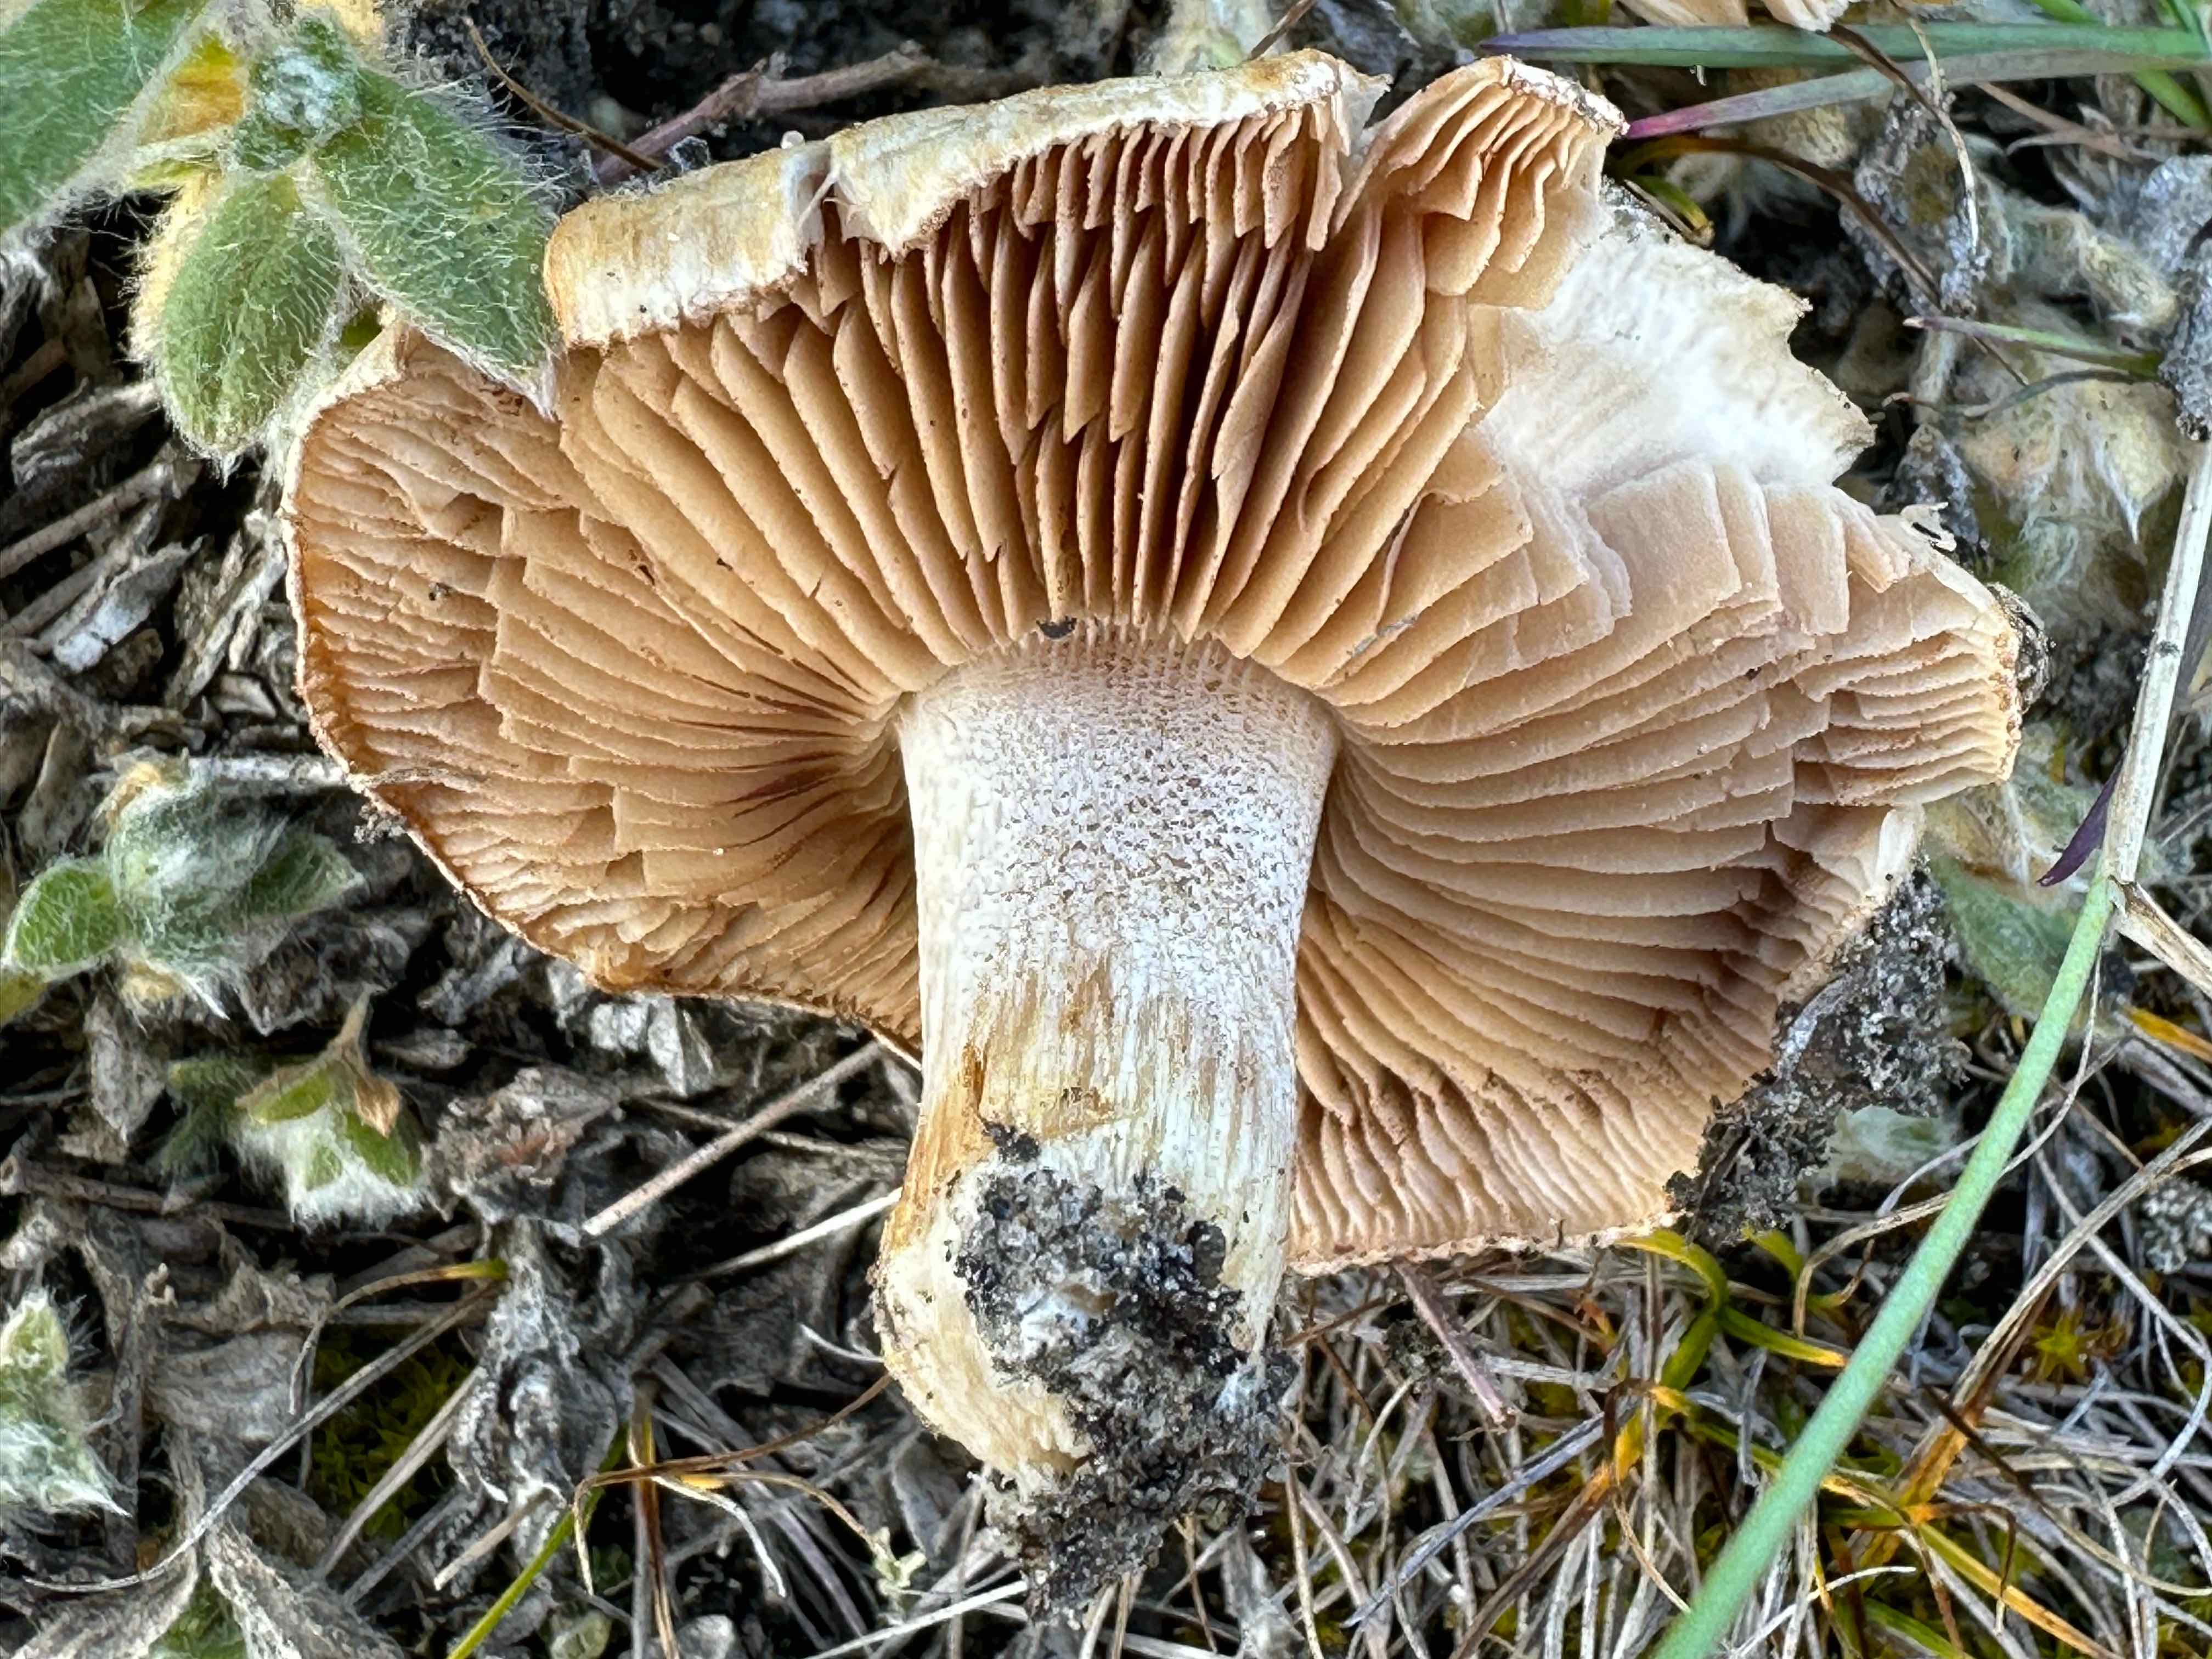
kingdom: Fungi
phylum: Basidiomycota
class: Agaricomycetes
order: Agaricales
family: Hymenogastraceae
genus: Hebeloma
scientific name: Hebeloma
